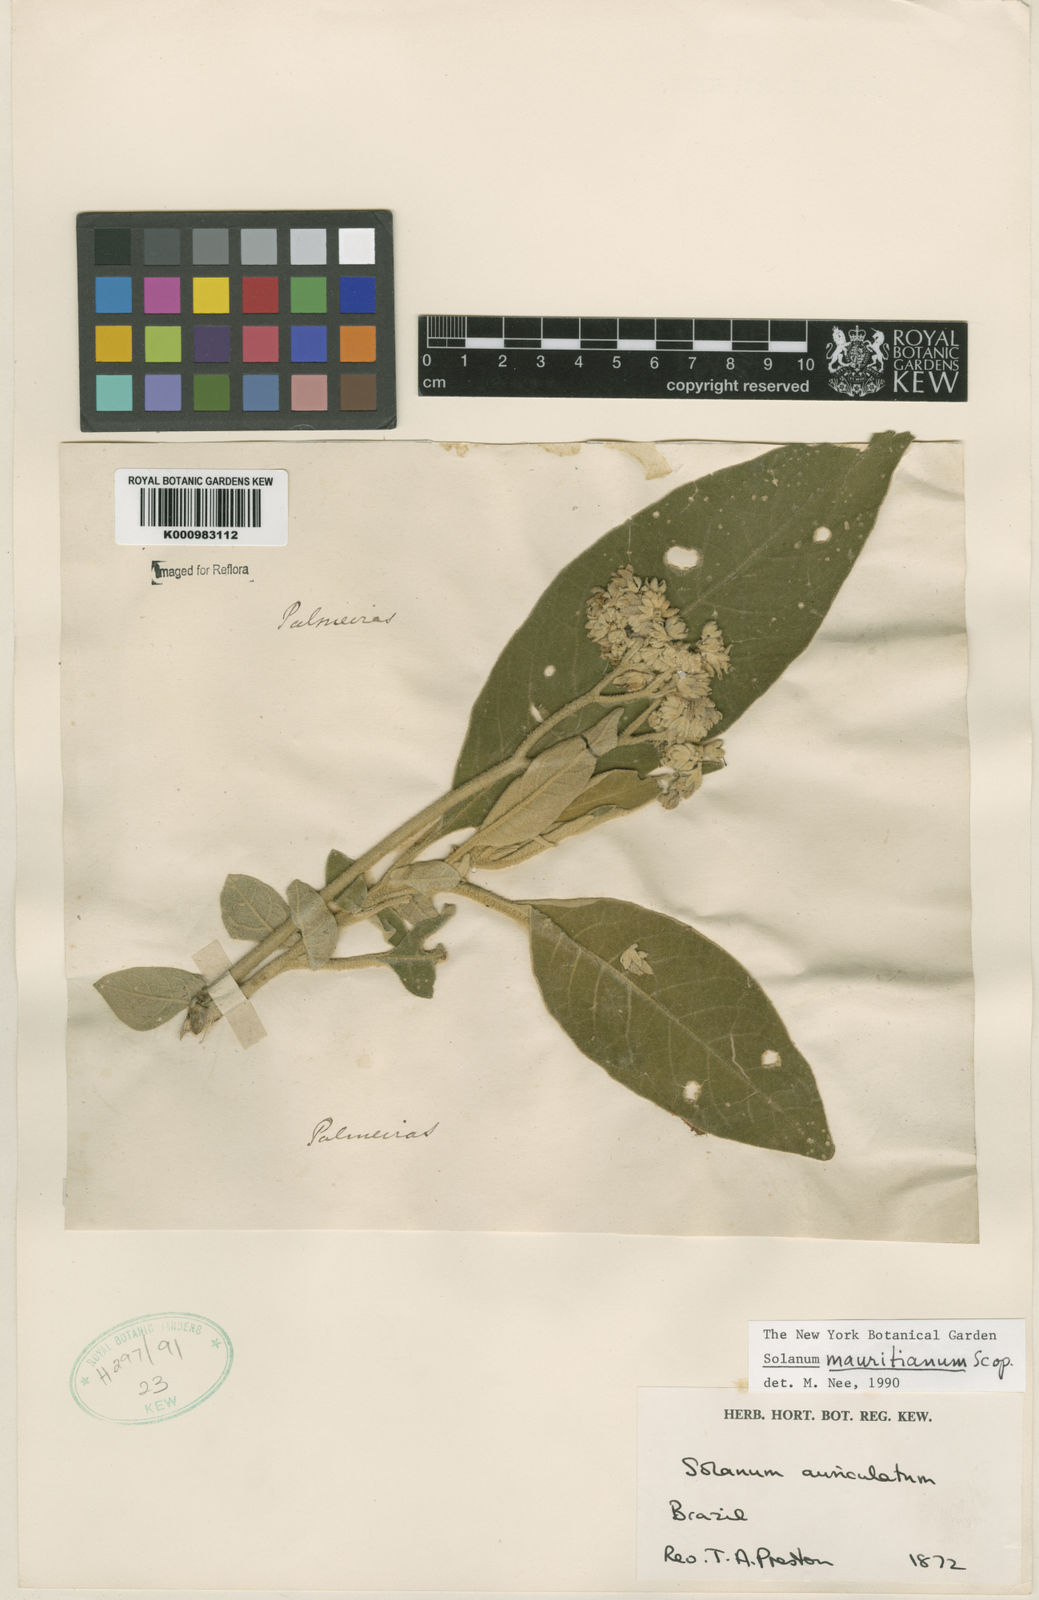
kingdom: Plantae
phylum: Tracheophyta
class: Magnoliopsida
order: Solanales
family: Solanaceae
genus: Solanum
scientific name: Solanum mauritianum
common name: Earleaf nightshade
